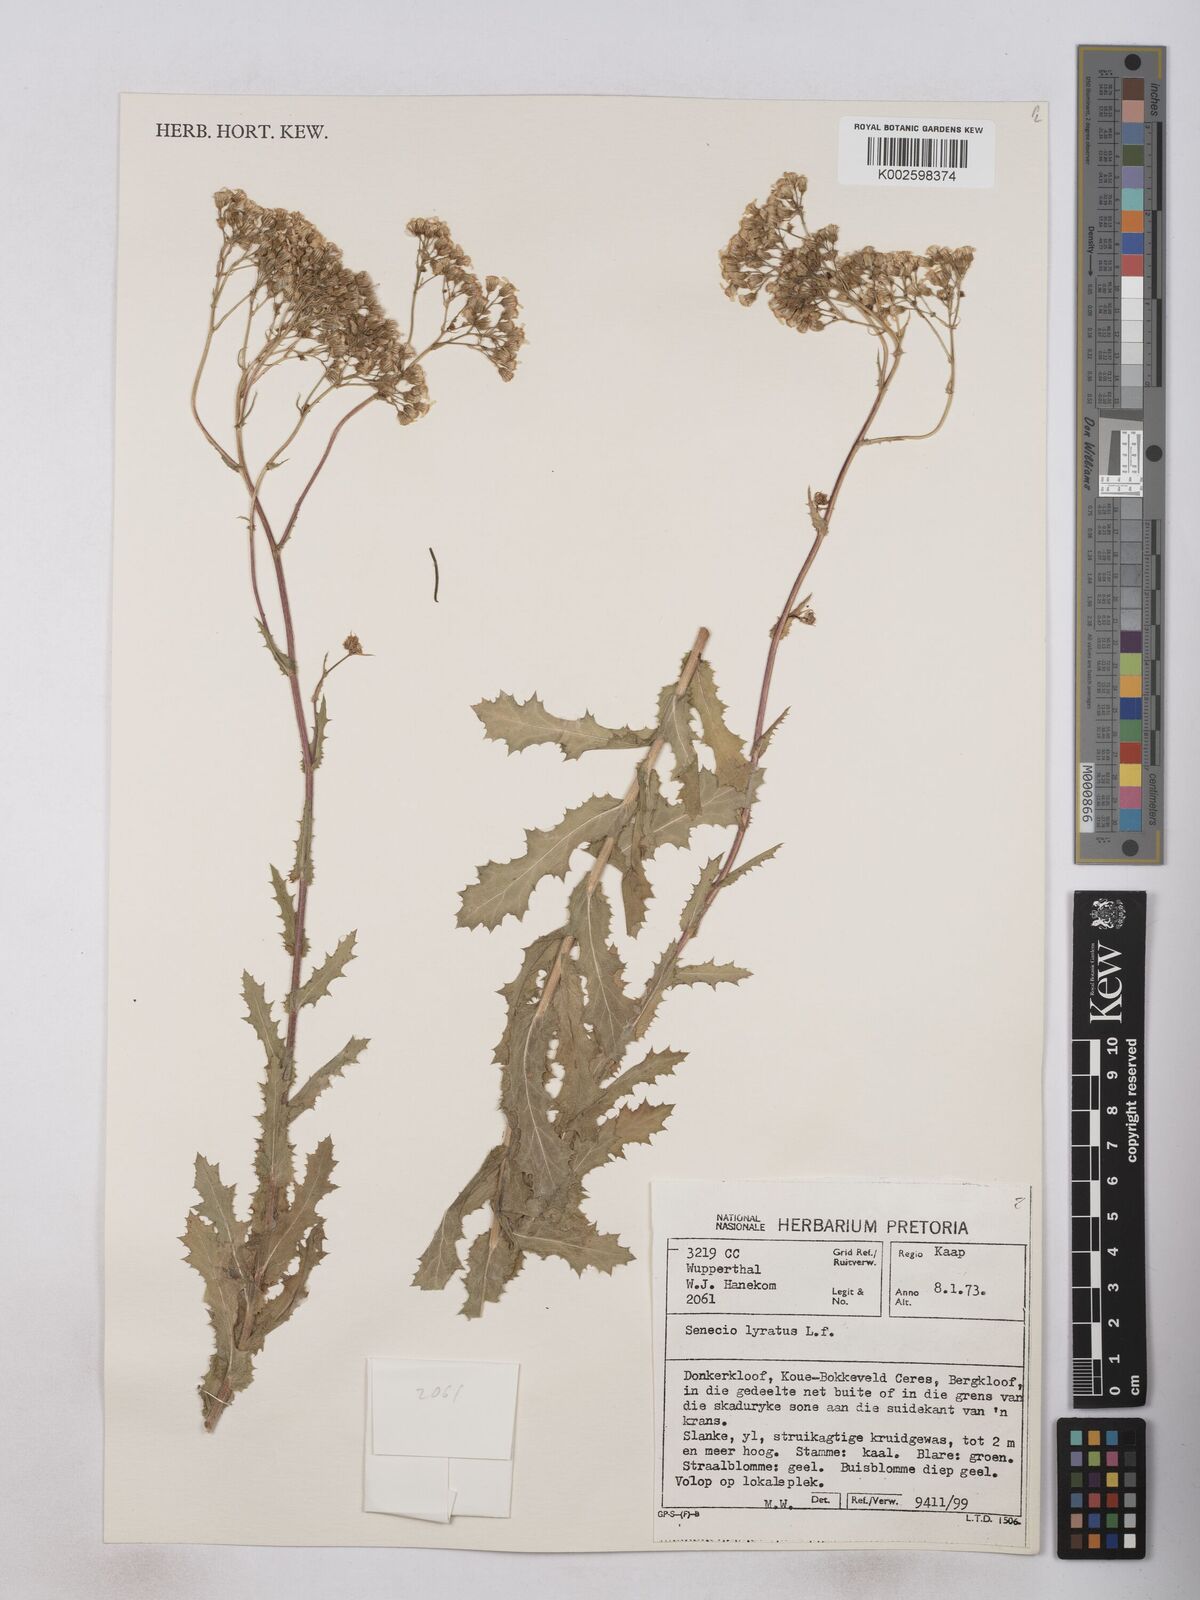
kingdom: Plantae
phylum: Tracheophyta
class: Magnoliopsida
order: Asterales
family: Asteraceae
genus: Senecio
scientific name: Senecio anapetes
